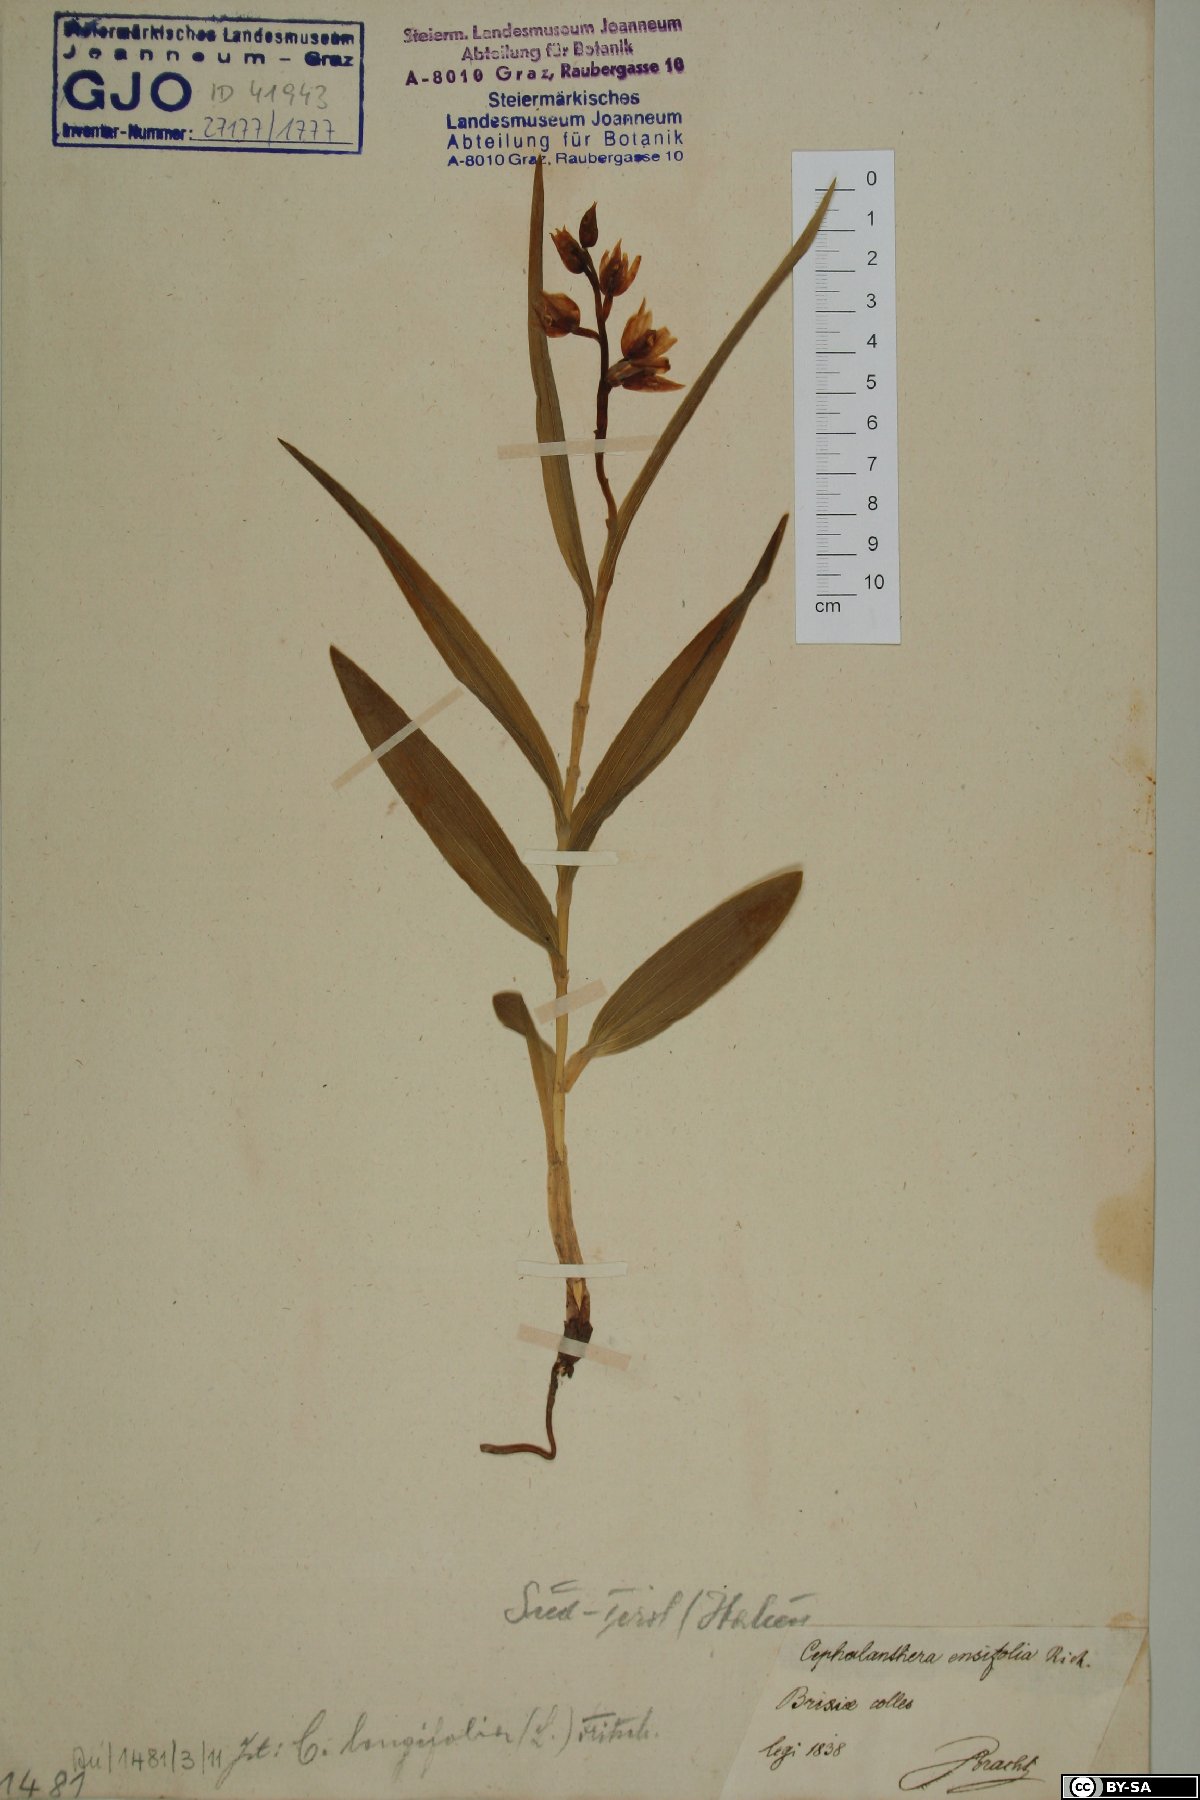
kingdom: Plantae
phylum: Tracheophyta
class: Liliopsida
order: Asparagales
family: Orchidaceae
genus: Cephalanthera
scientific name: Cephalanthera longifolia
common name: Narrow-leaved helleborine
